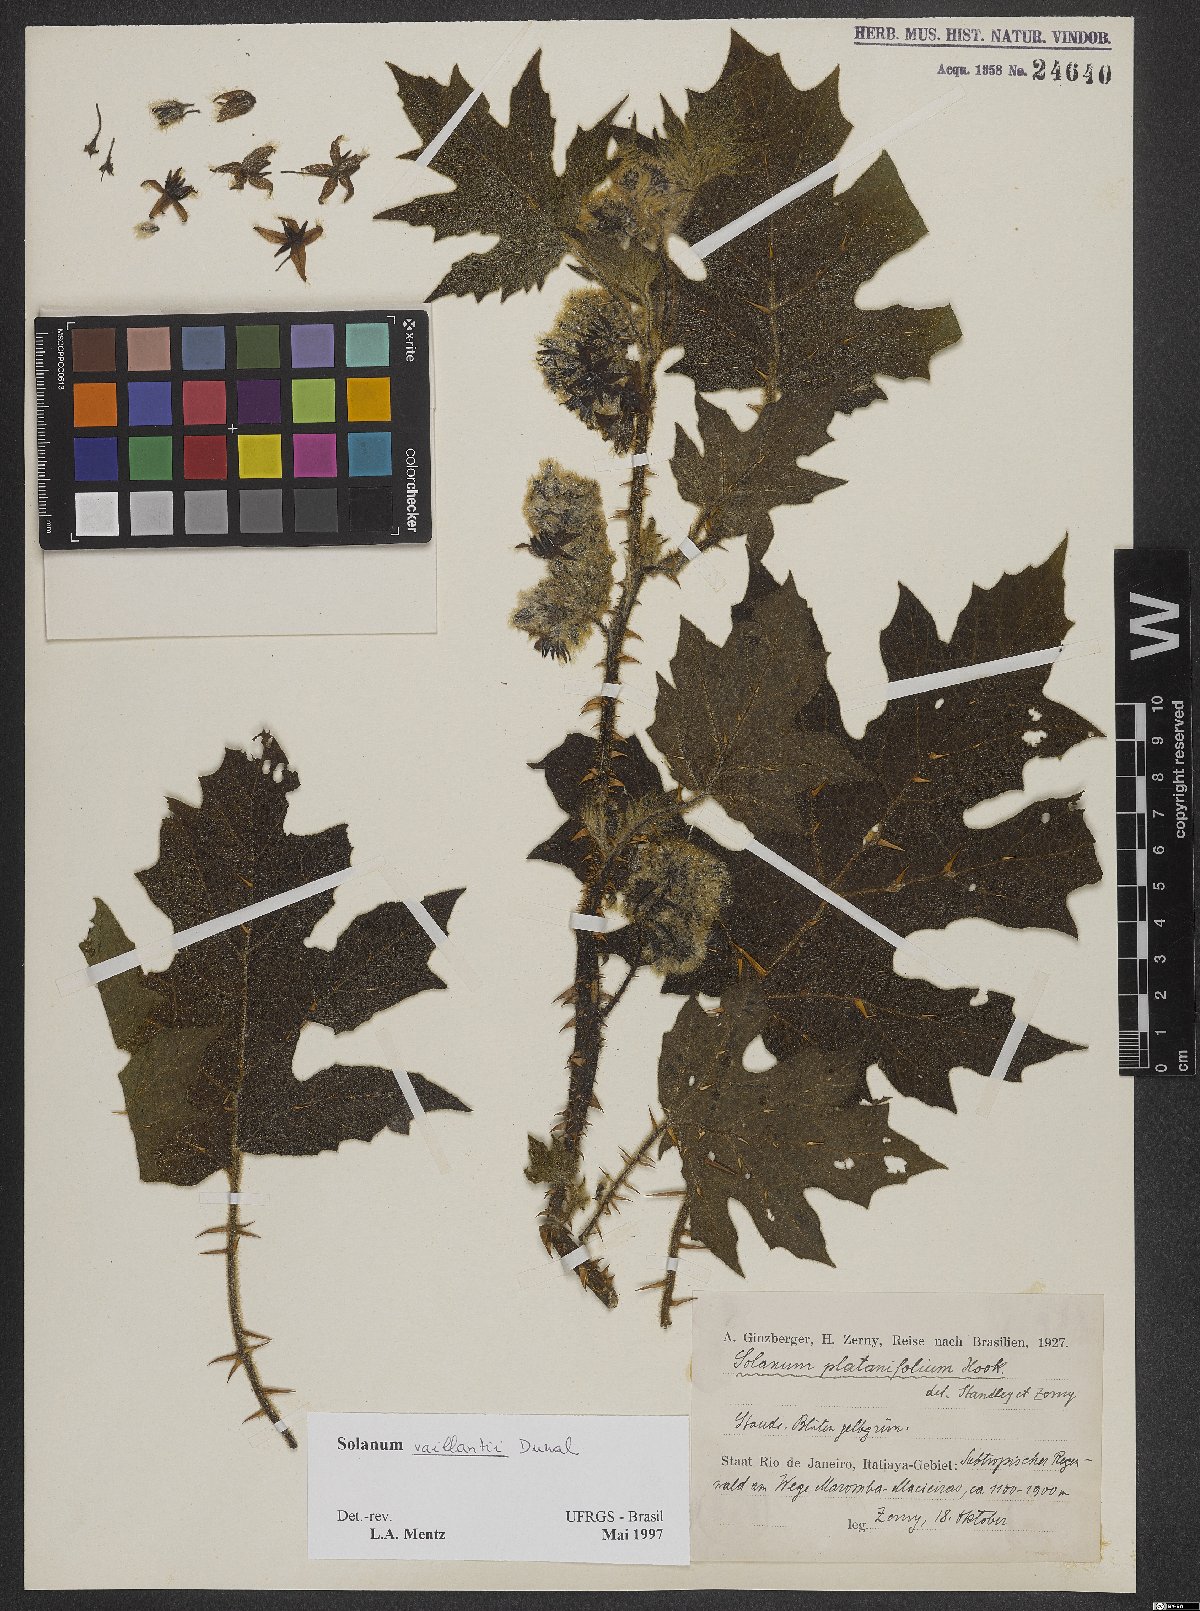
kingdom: Plantae
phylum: Tracheophyta
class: Magnoliopsida
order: Solanales
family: Solanaceae
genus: Solanum
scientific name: Solanum vaillantii
